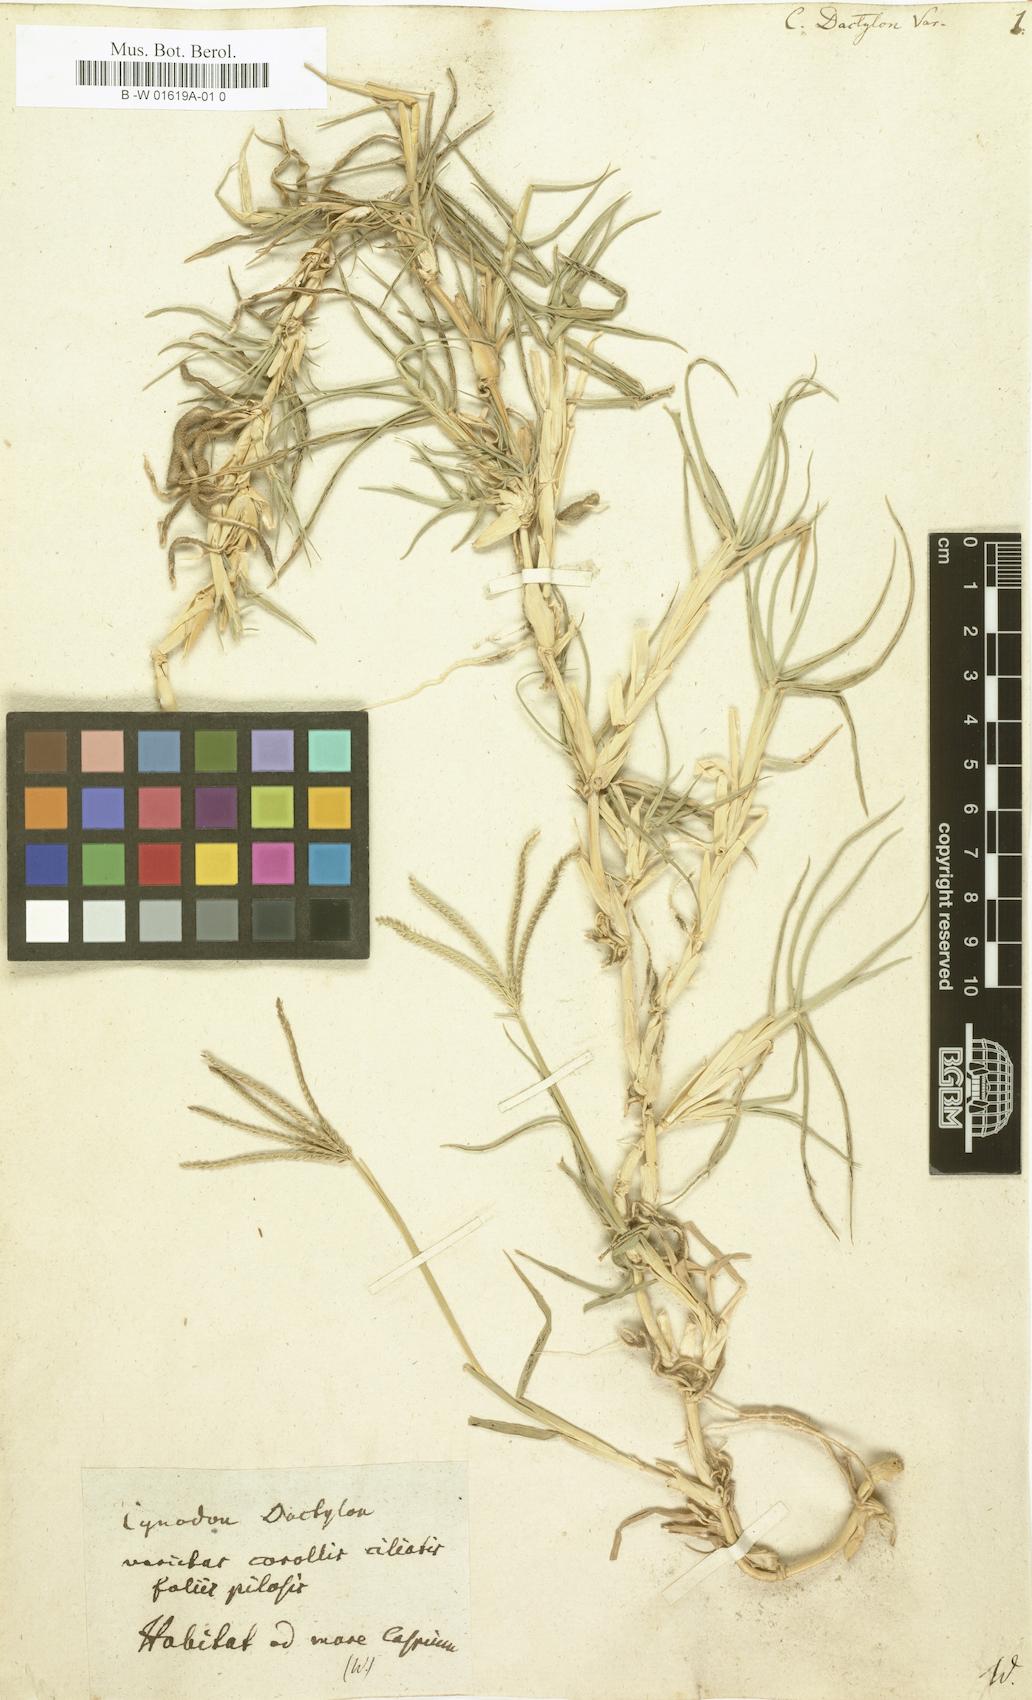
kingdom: Plantae
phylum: Tracheophyta
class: Liliopsida
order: Poales
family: Poaceae
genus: Cynodon
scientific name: Cynodon dactylon
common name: Bermuda grass
